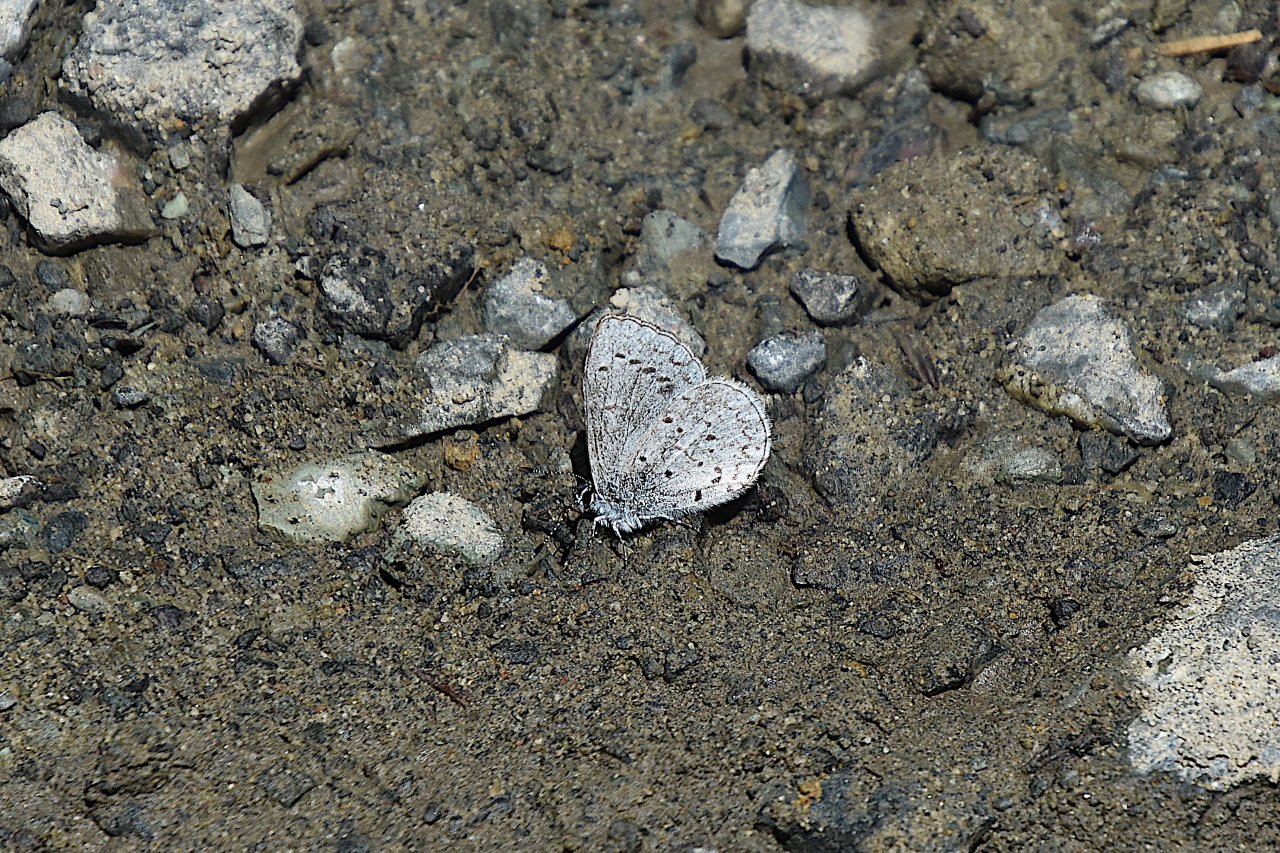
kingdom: Animalia
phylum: Arthropoda
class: Insecta
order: Lepidoptera
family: Lycaenidae
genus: Celastrina
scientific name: Celastrina ladon
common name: Echo Azure
